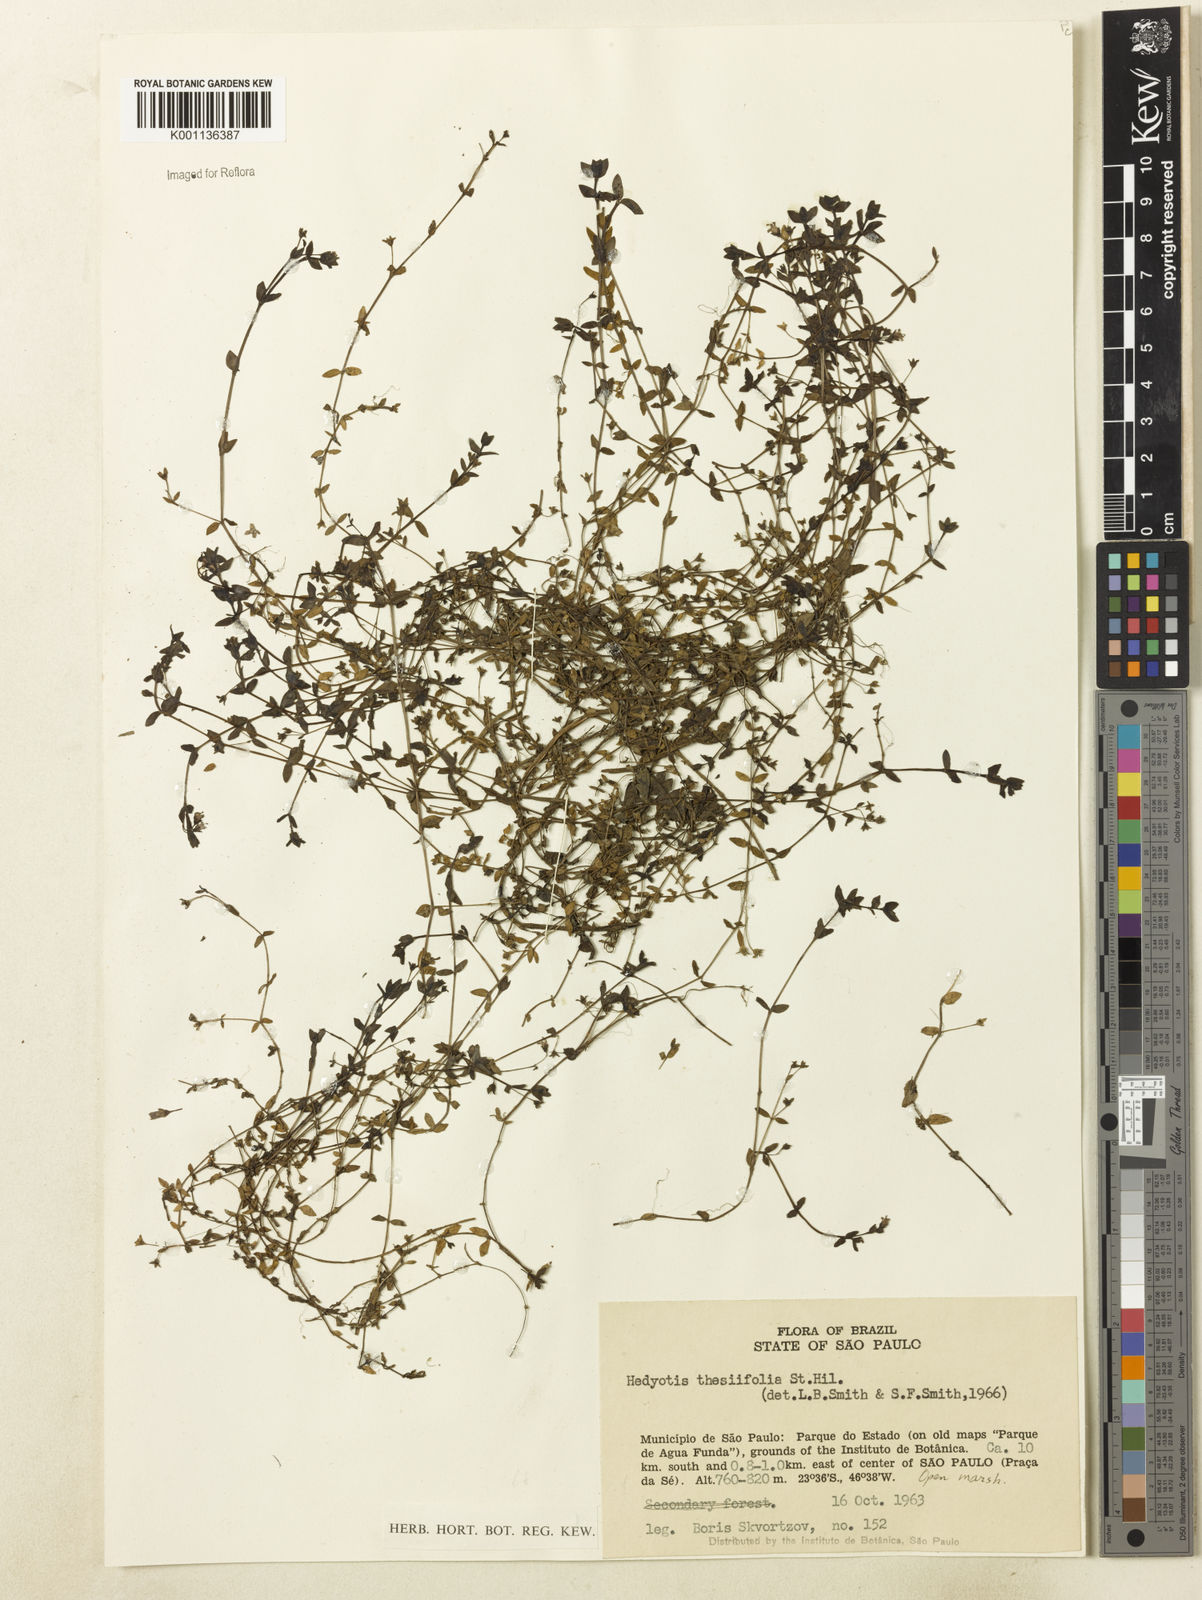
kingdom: Plantae
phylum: Tracheophyta
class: Magnoliopsida
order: Gentianales
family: Rubiaceae
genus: Oldenlandia
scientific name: Oldenlandia salzmannii
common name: Salzmann's mille graines
